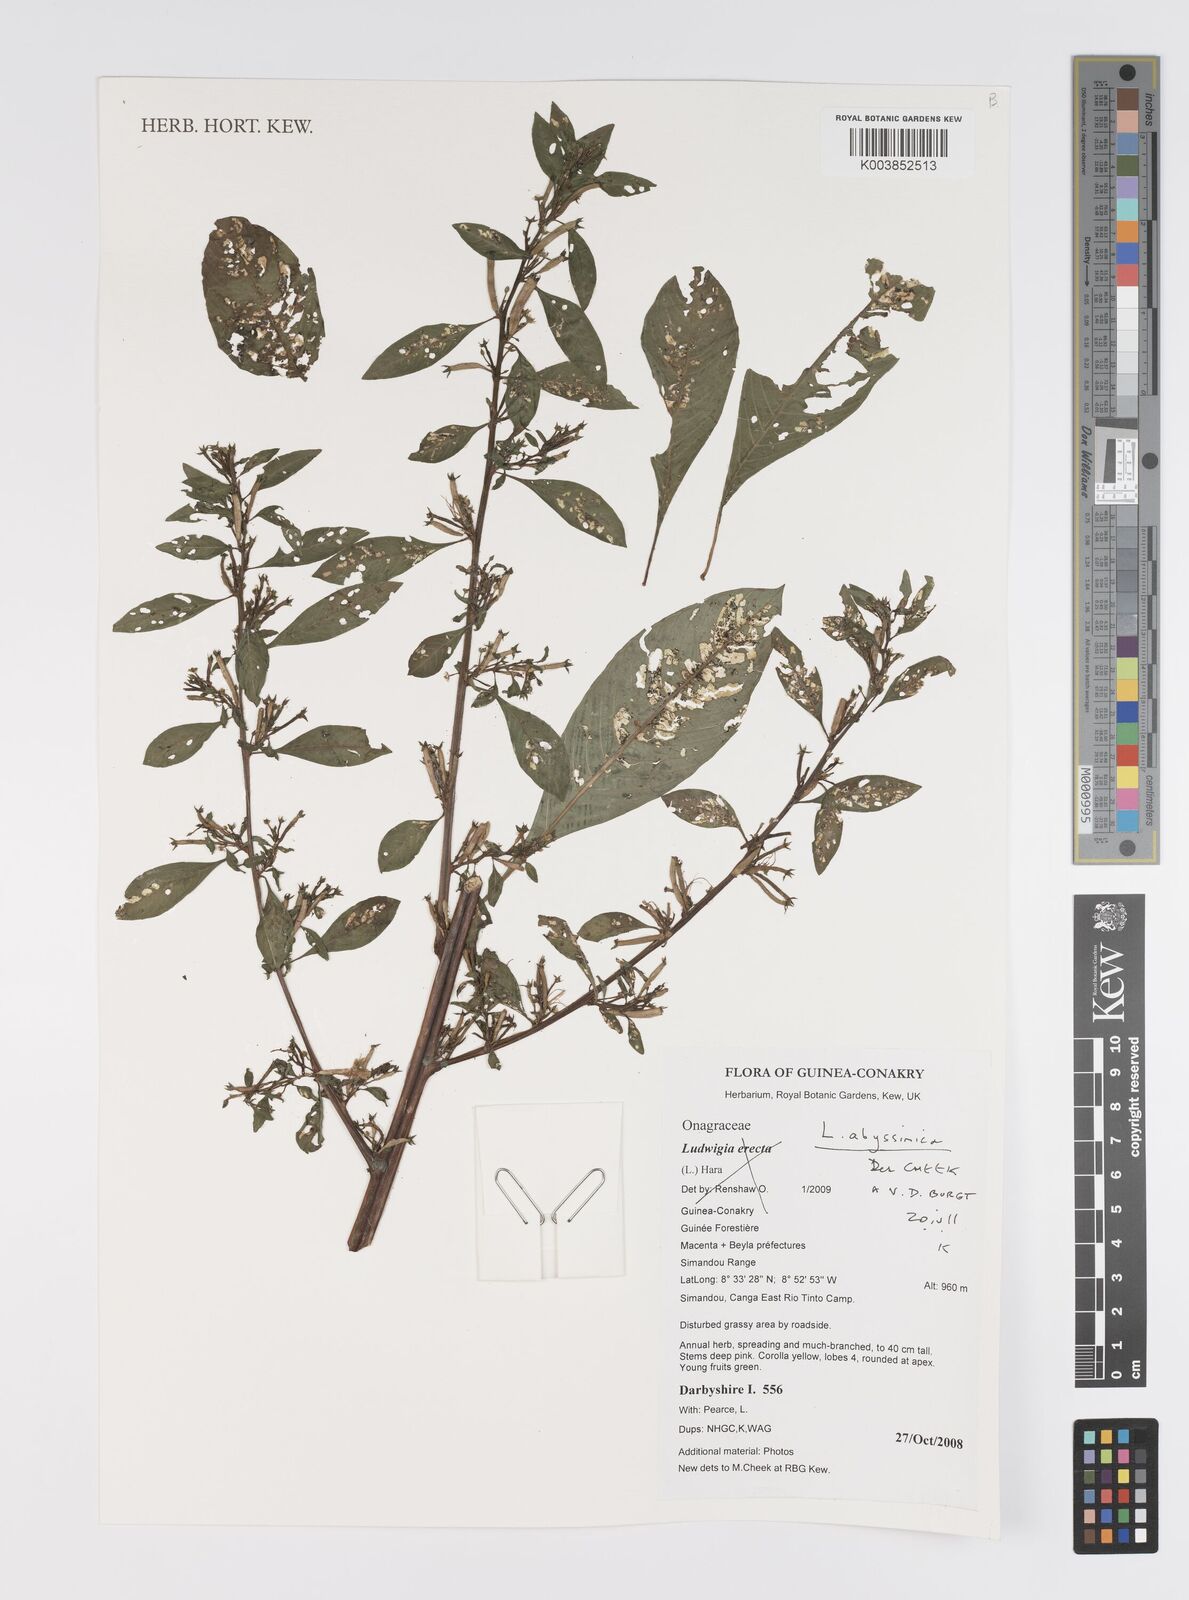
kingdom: Plantae
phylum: Tracheophyta
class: Magnoliopsida
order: Myrtales
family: Onagraceae
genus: Ludwigia
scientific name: Ludwigia abyssinica
